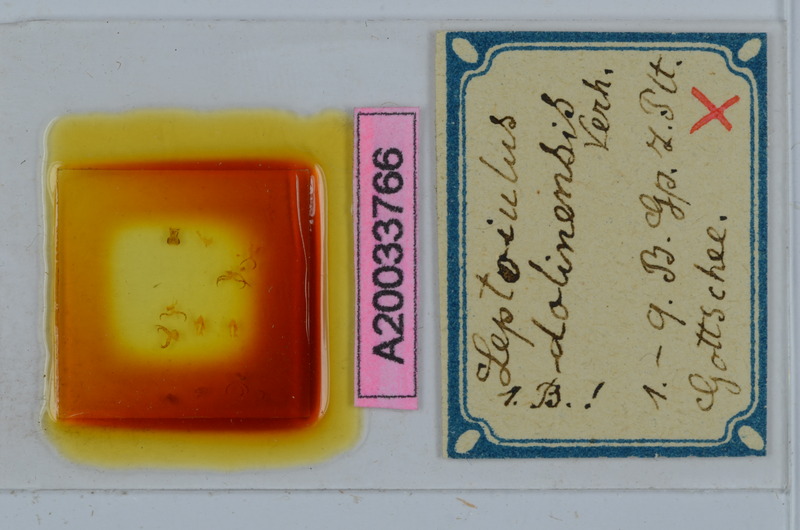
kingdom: Animalia
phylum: Arthropoda
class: Diplopoda
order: Julida
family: Julidae
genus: Leptoiulus
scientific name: Leptoiulus dolinensis
